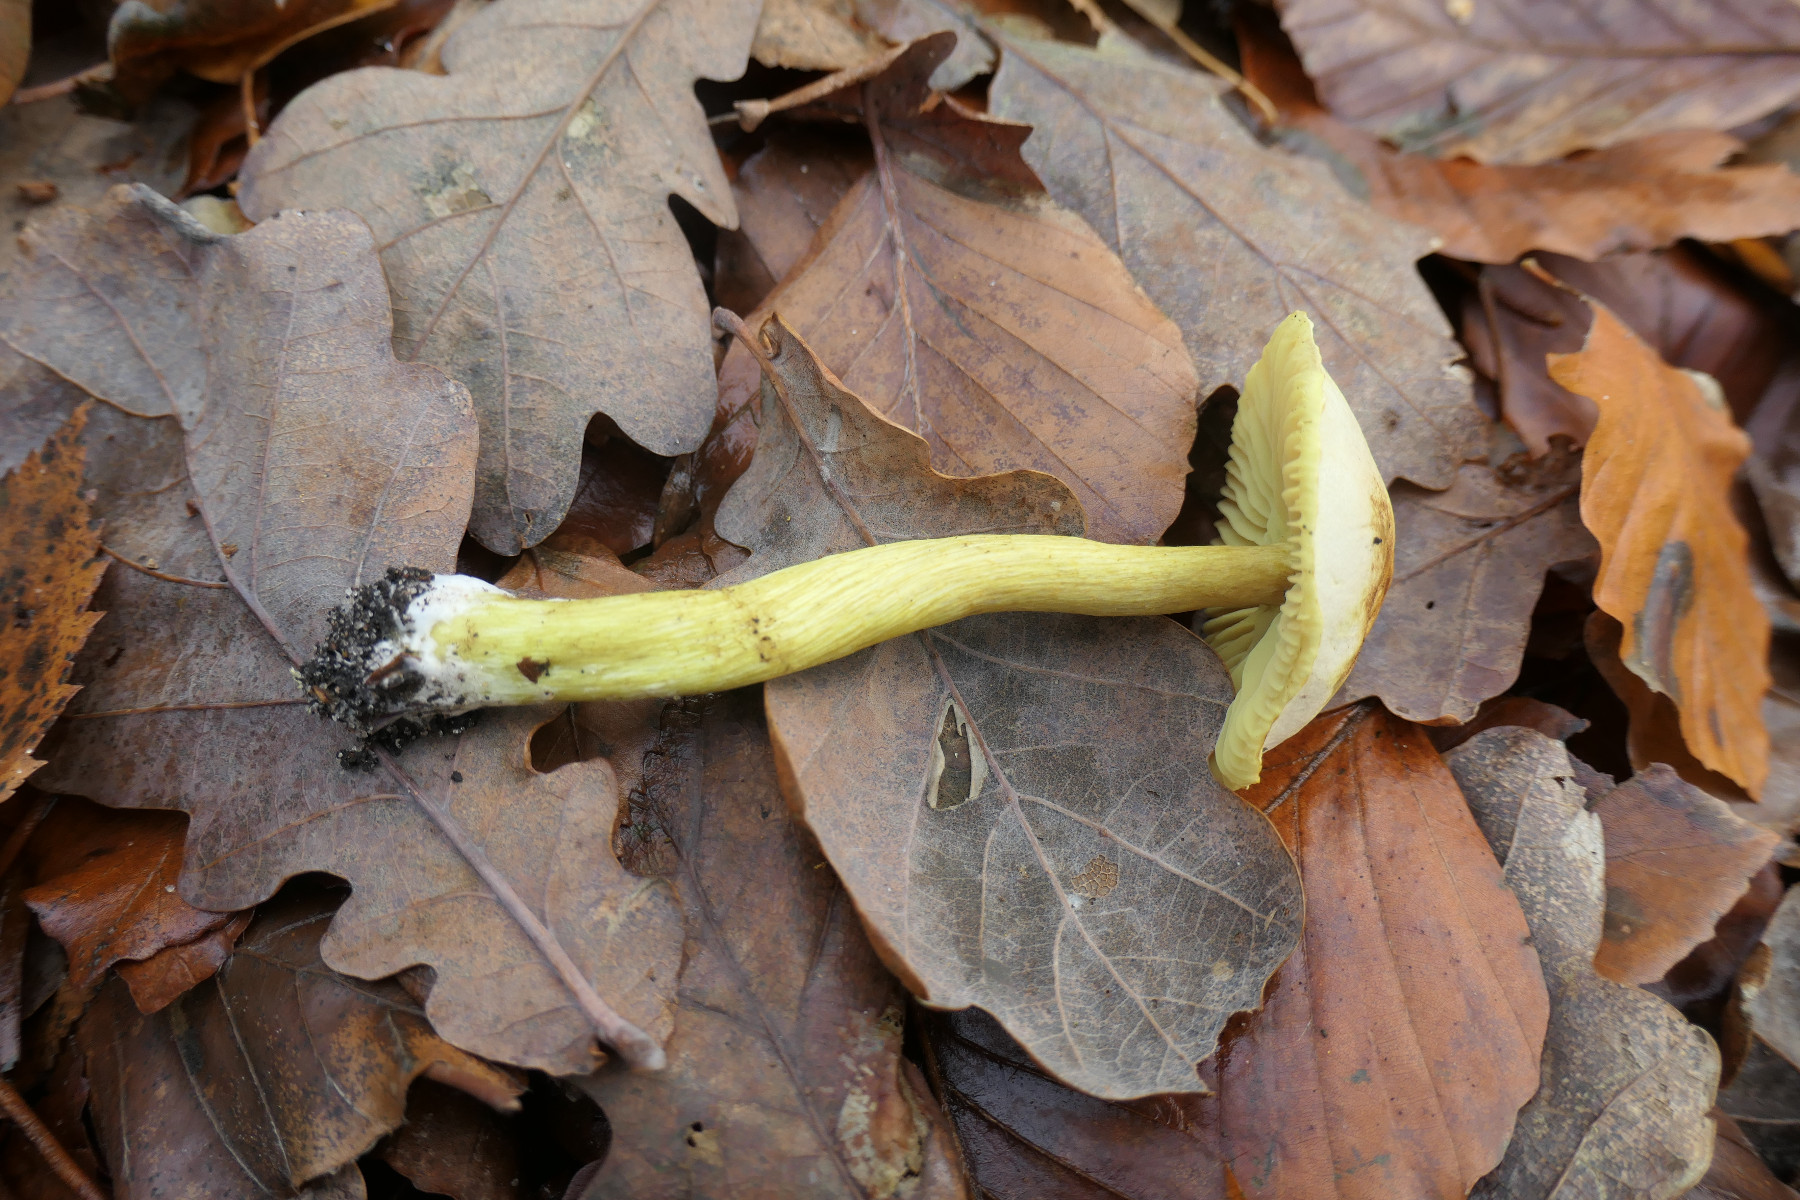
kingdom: Fungi
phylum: Basidiomycota
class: Agaricomycetes
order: Agaricales
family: Tricholomataceae
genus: Tricholoma
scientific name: Tricholoma sulphureum
